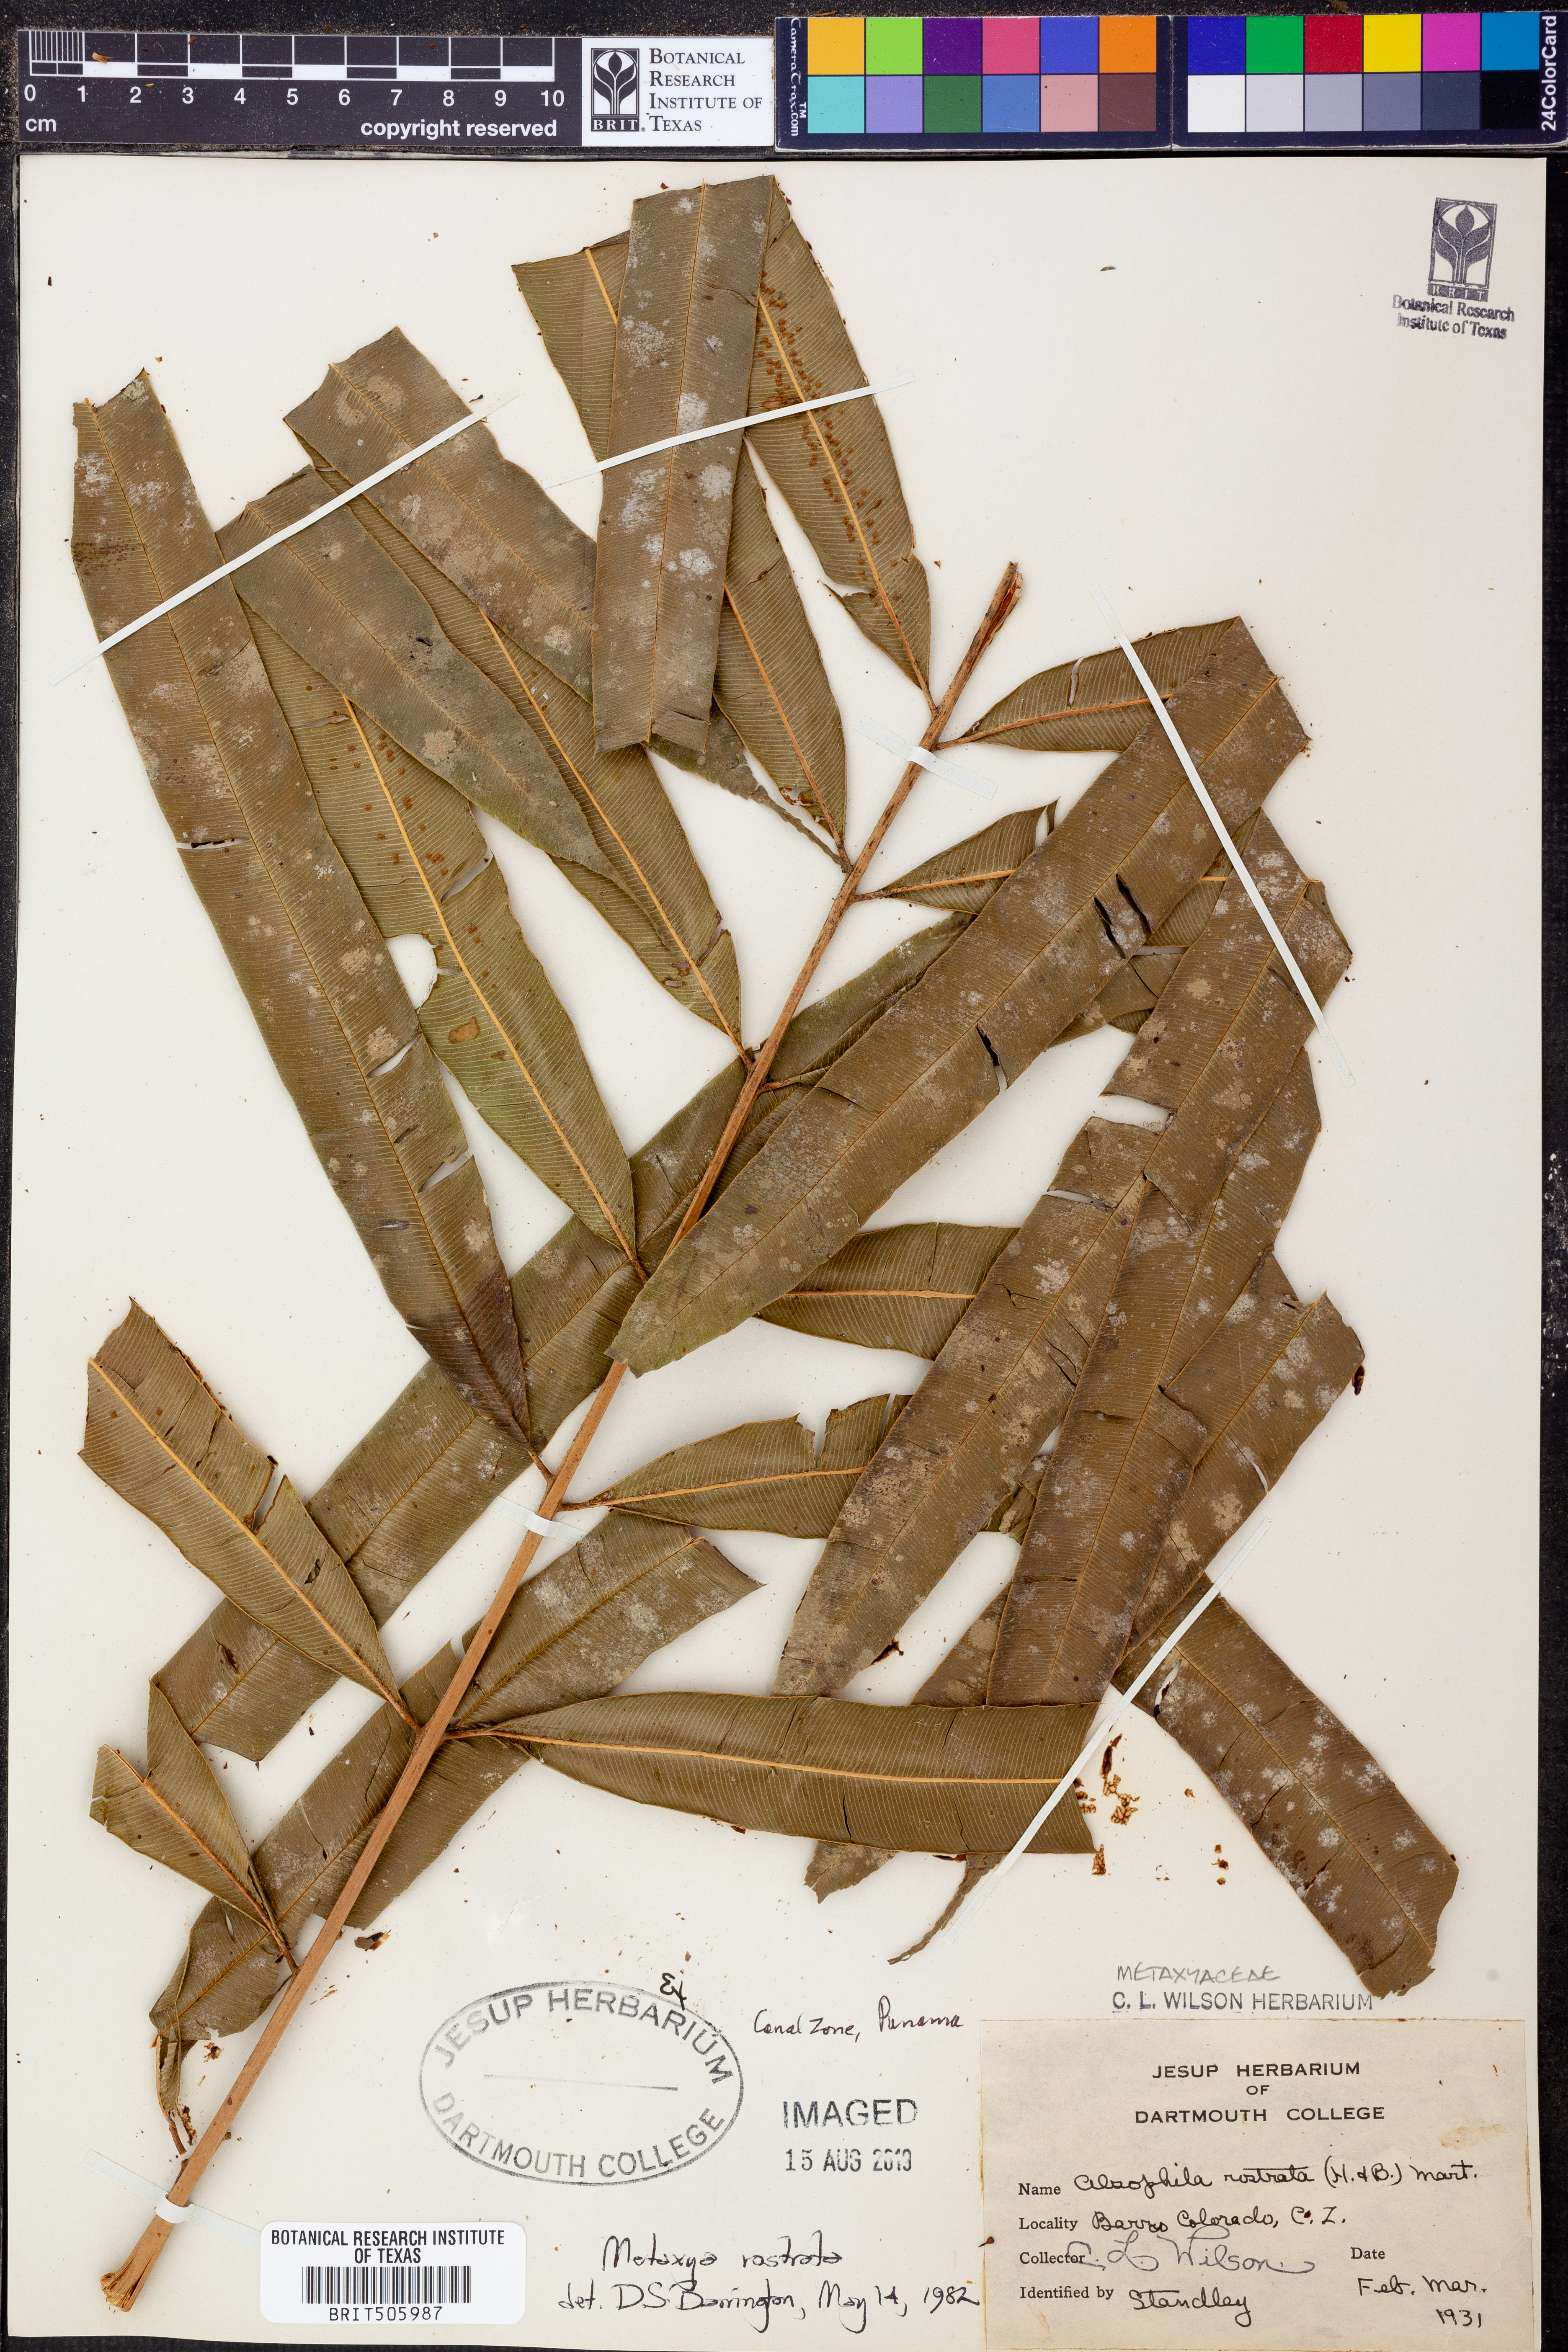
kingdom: Plantae
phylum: Tracheophyta
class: Polypodiopsida
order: Cyatheales
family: Metaxyaceae
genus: Metaxya
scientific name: Metaxya rostrata
